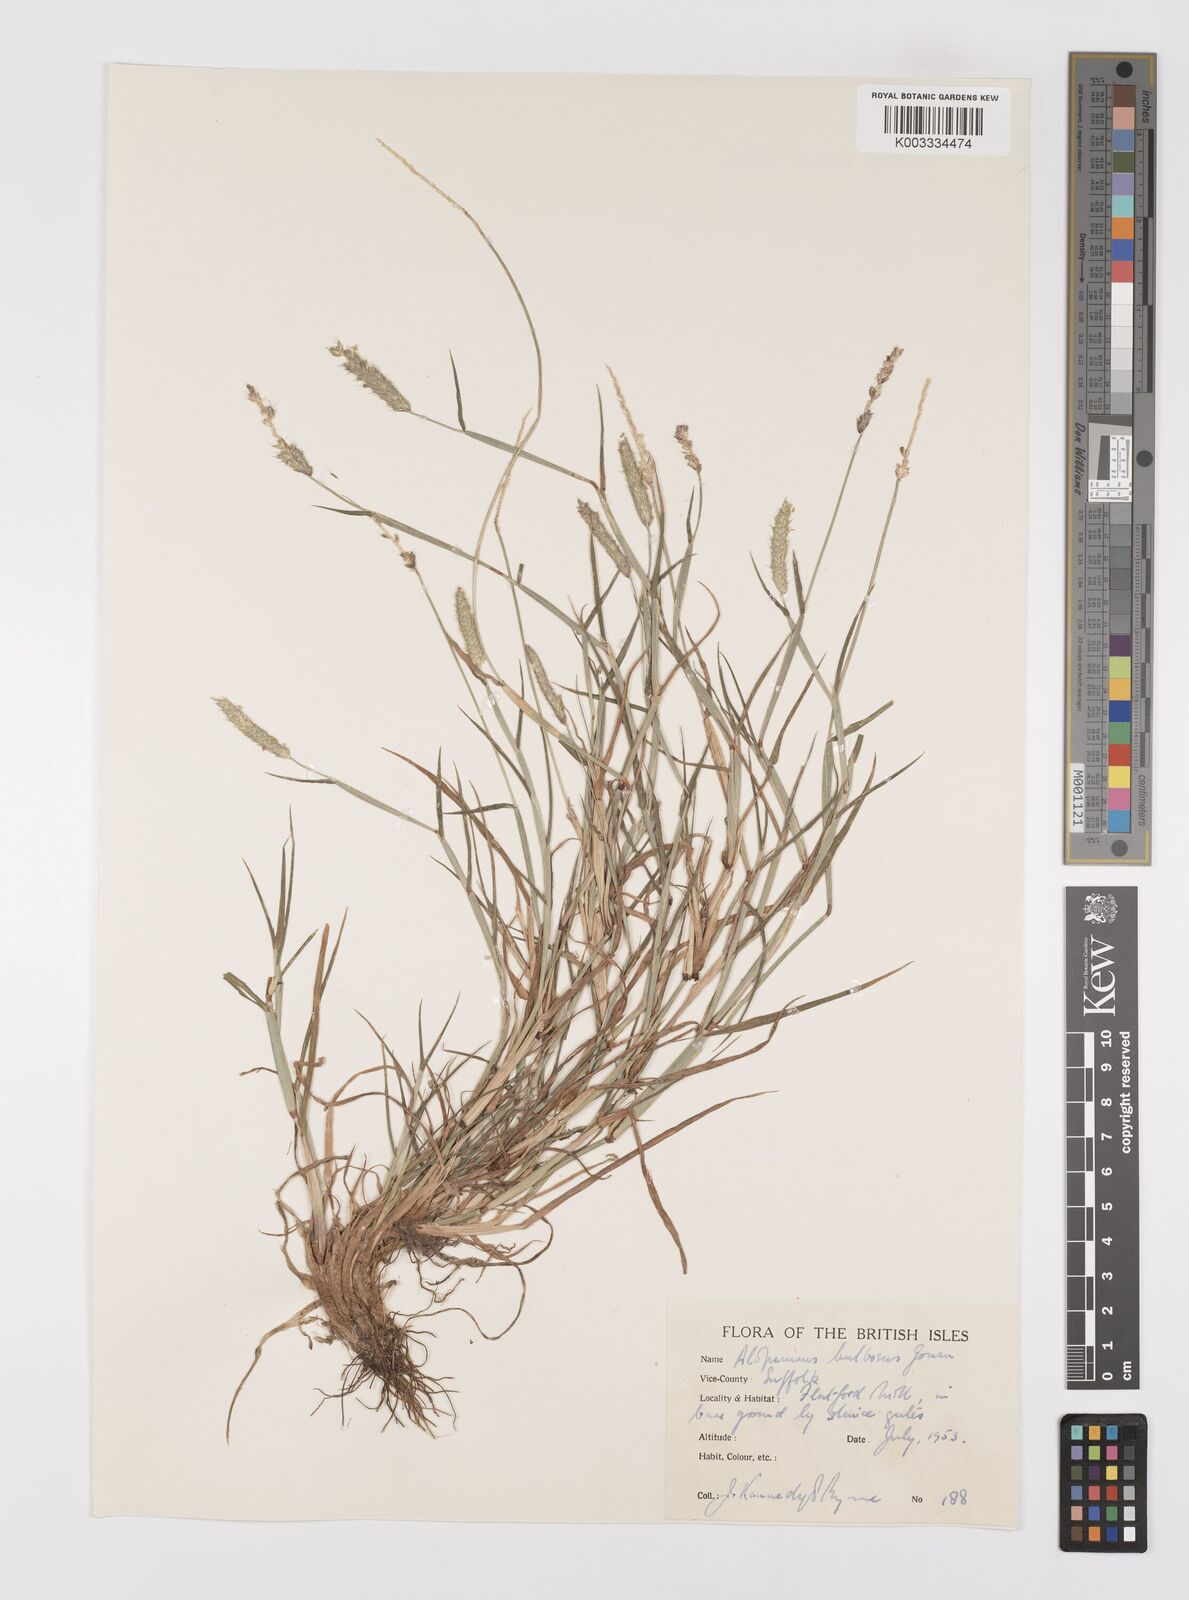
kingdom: Plantae
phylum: Tracheophyta
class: Liliopsida
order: Poales
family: Poaceae
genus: Alopecurus
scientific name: Alopecurus bulbosus
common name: Bulbous foxtail
